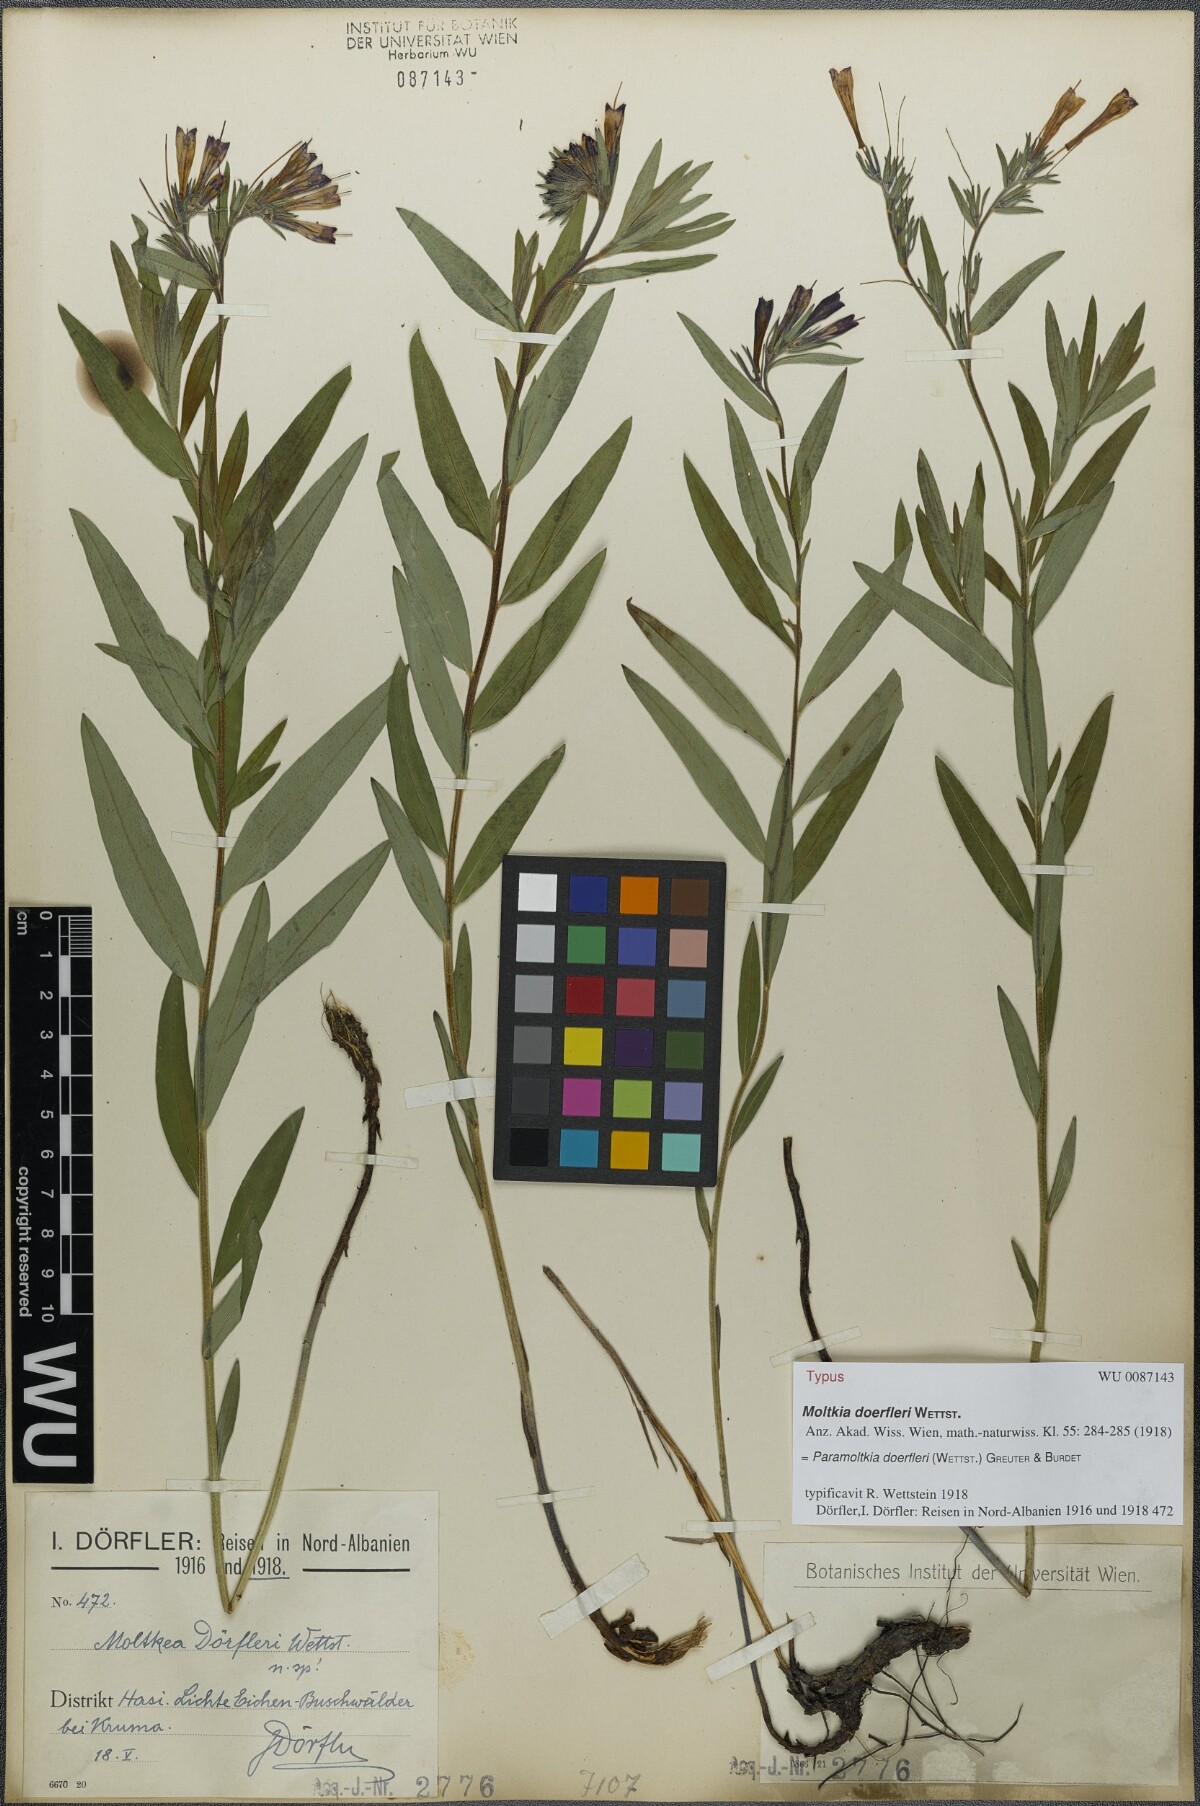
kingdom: Plantae
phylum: Tracheophyta
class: Magnoliopsida
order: Boraginales
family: Boraginaceae
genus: Paramoltkia
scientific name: Paramoltkia doerfleri
